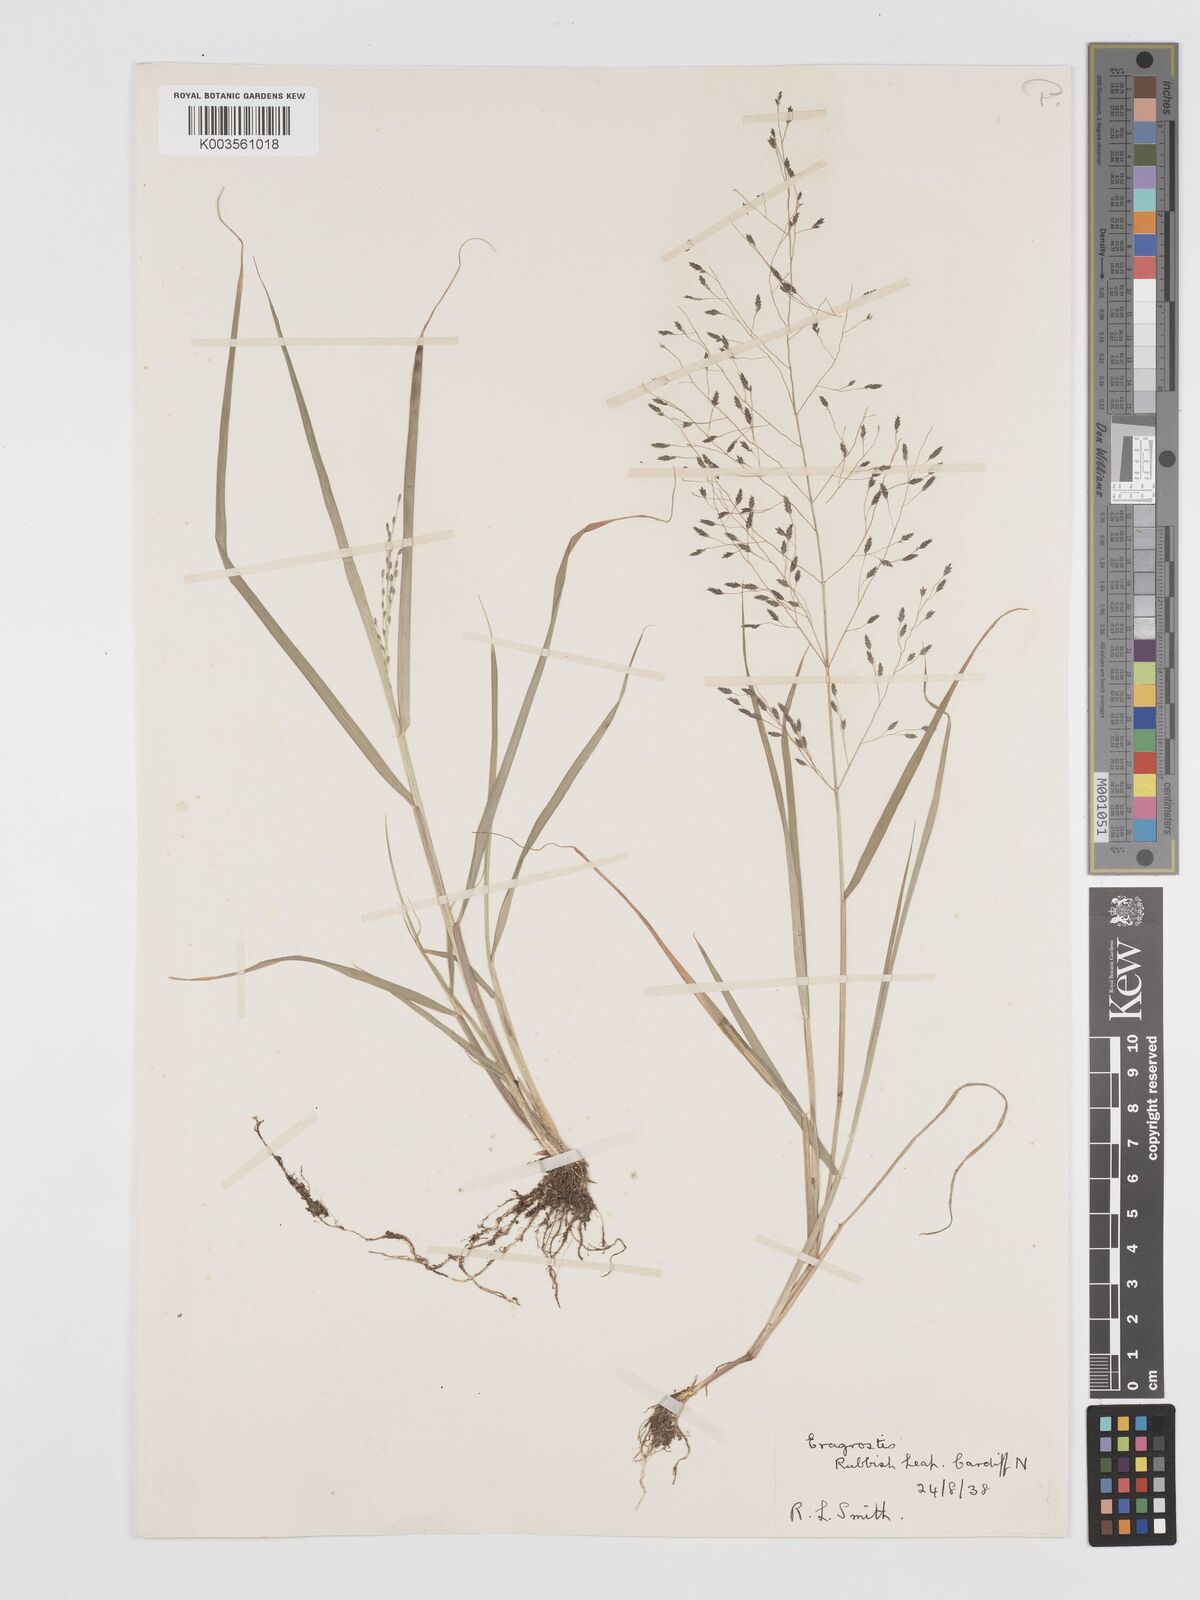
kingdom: Plantae
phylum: Tracheophyta
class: Liliopsida
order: Poales
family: Poaceae
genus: Eragrostis
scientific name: Eragrostis
